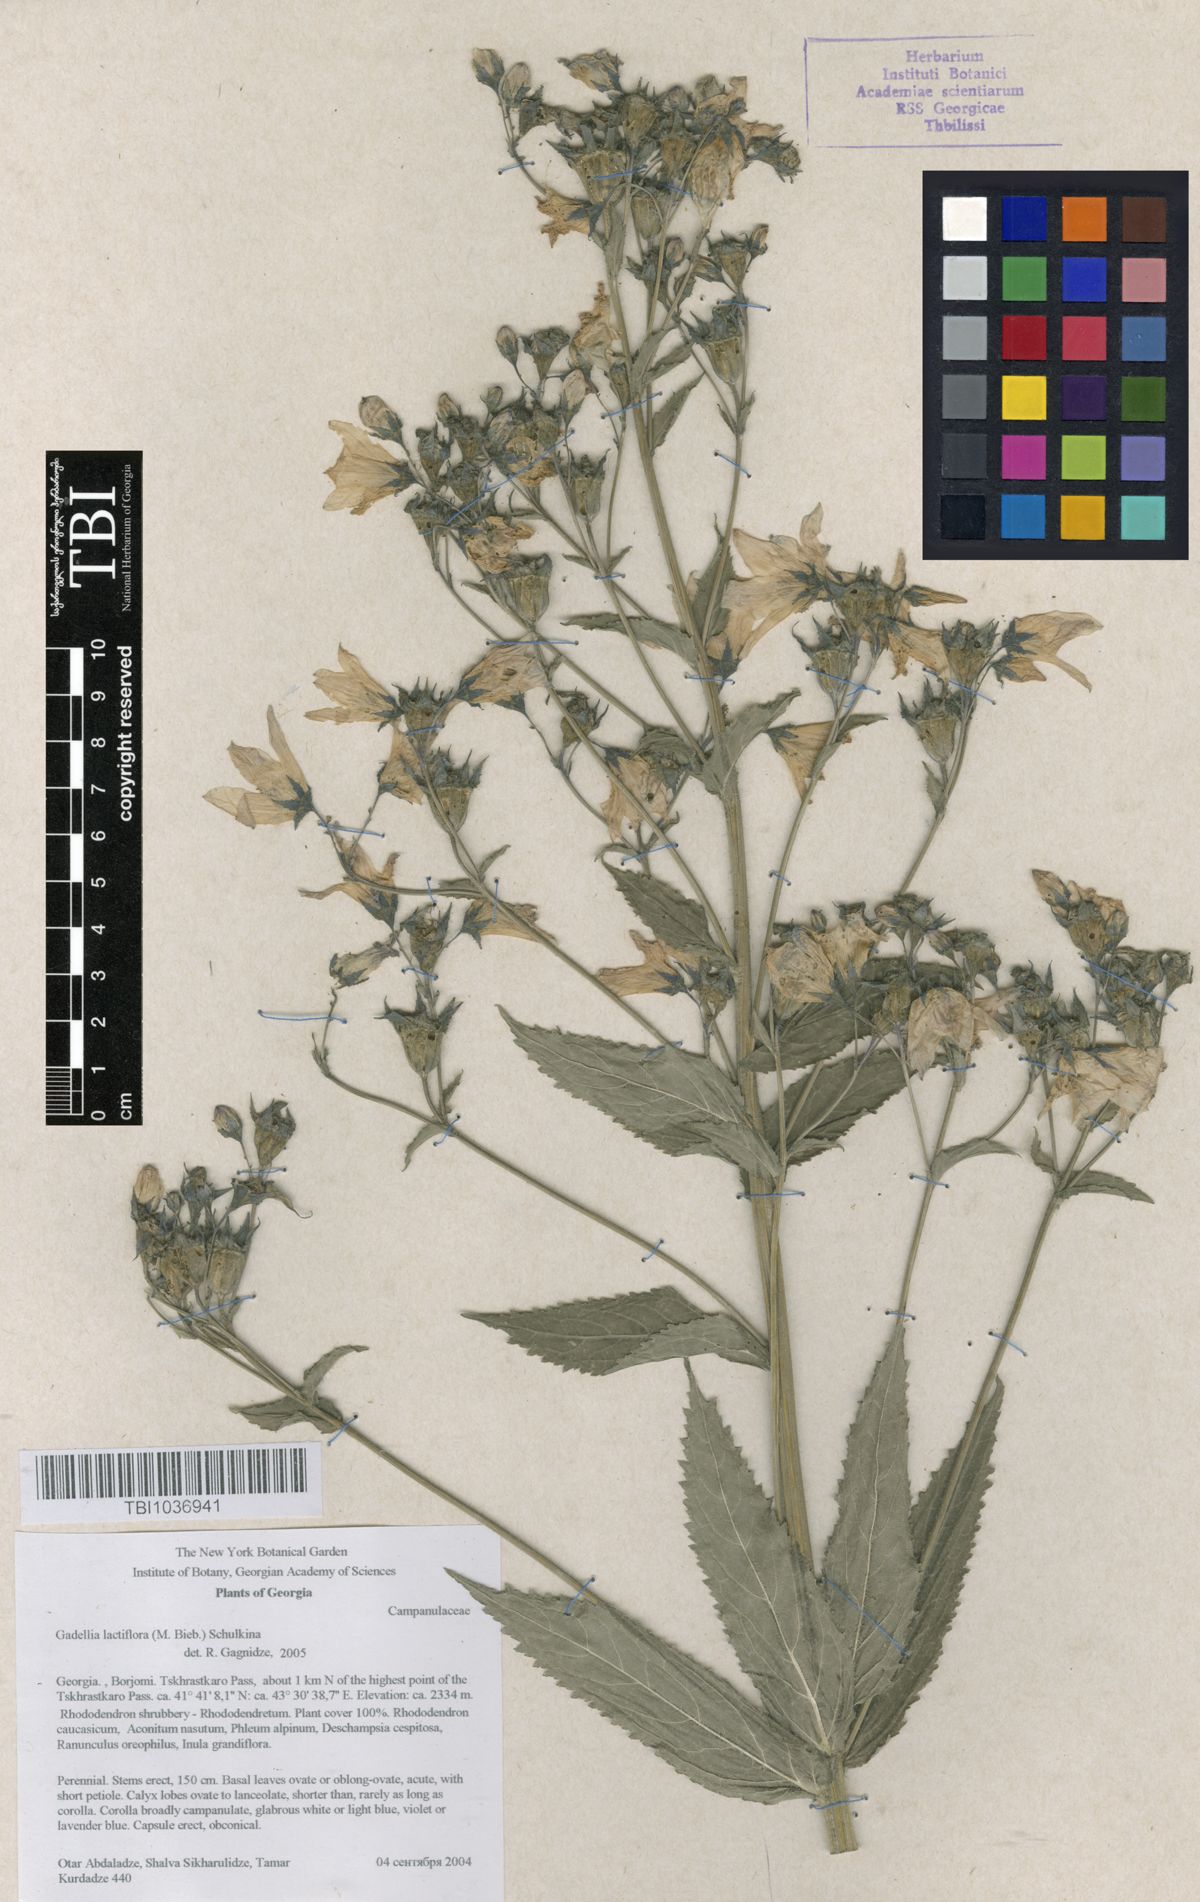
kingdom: Plantae
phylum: Tracheophyta
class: Magnoliopsida
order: Asterales
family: Campanulaceae
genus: Campanula
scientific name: Campanula lactiflora
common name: Milky bellflower
